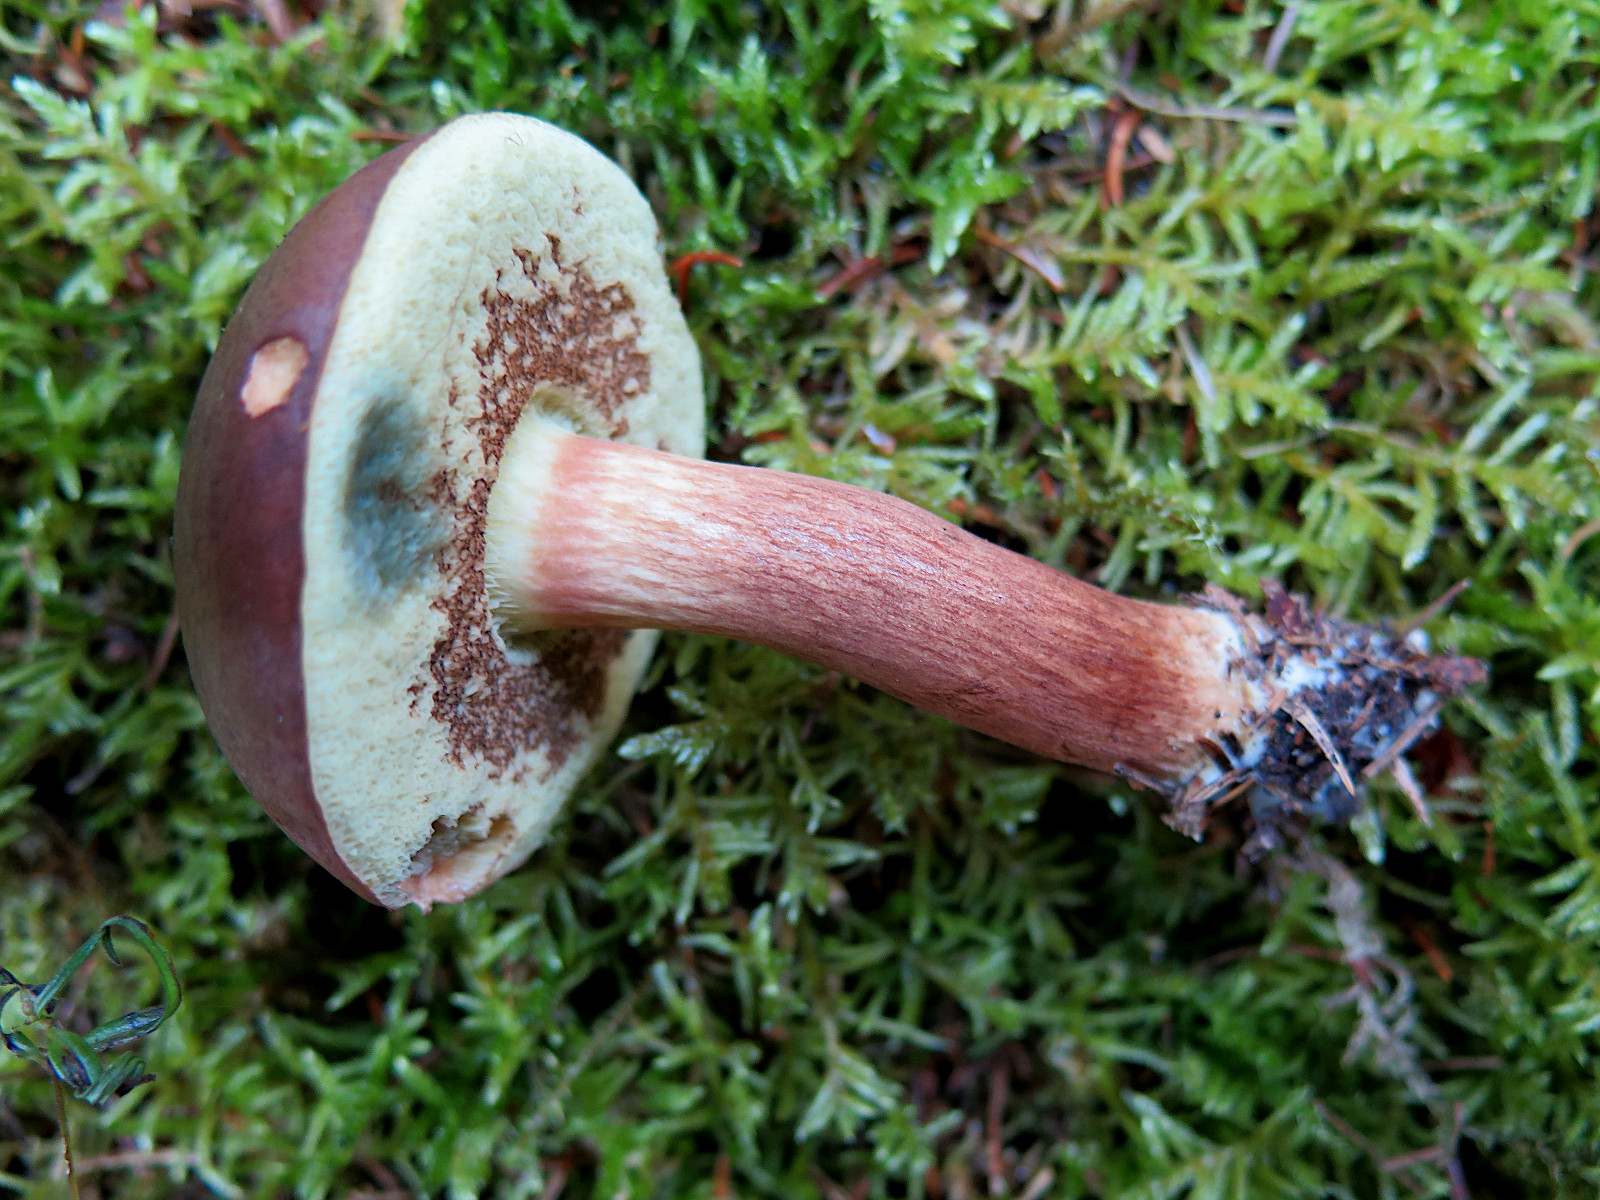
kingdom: Fungi
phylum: Basidiomycota
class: Agaricomycetes
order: Boletales
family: Boletaceae
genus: Imleria
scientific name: Imleria badia
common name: brunstokket rørhat
